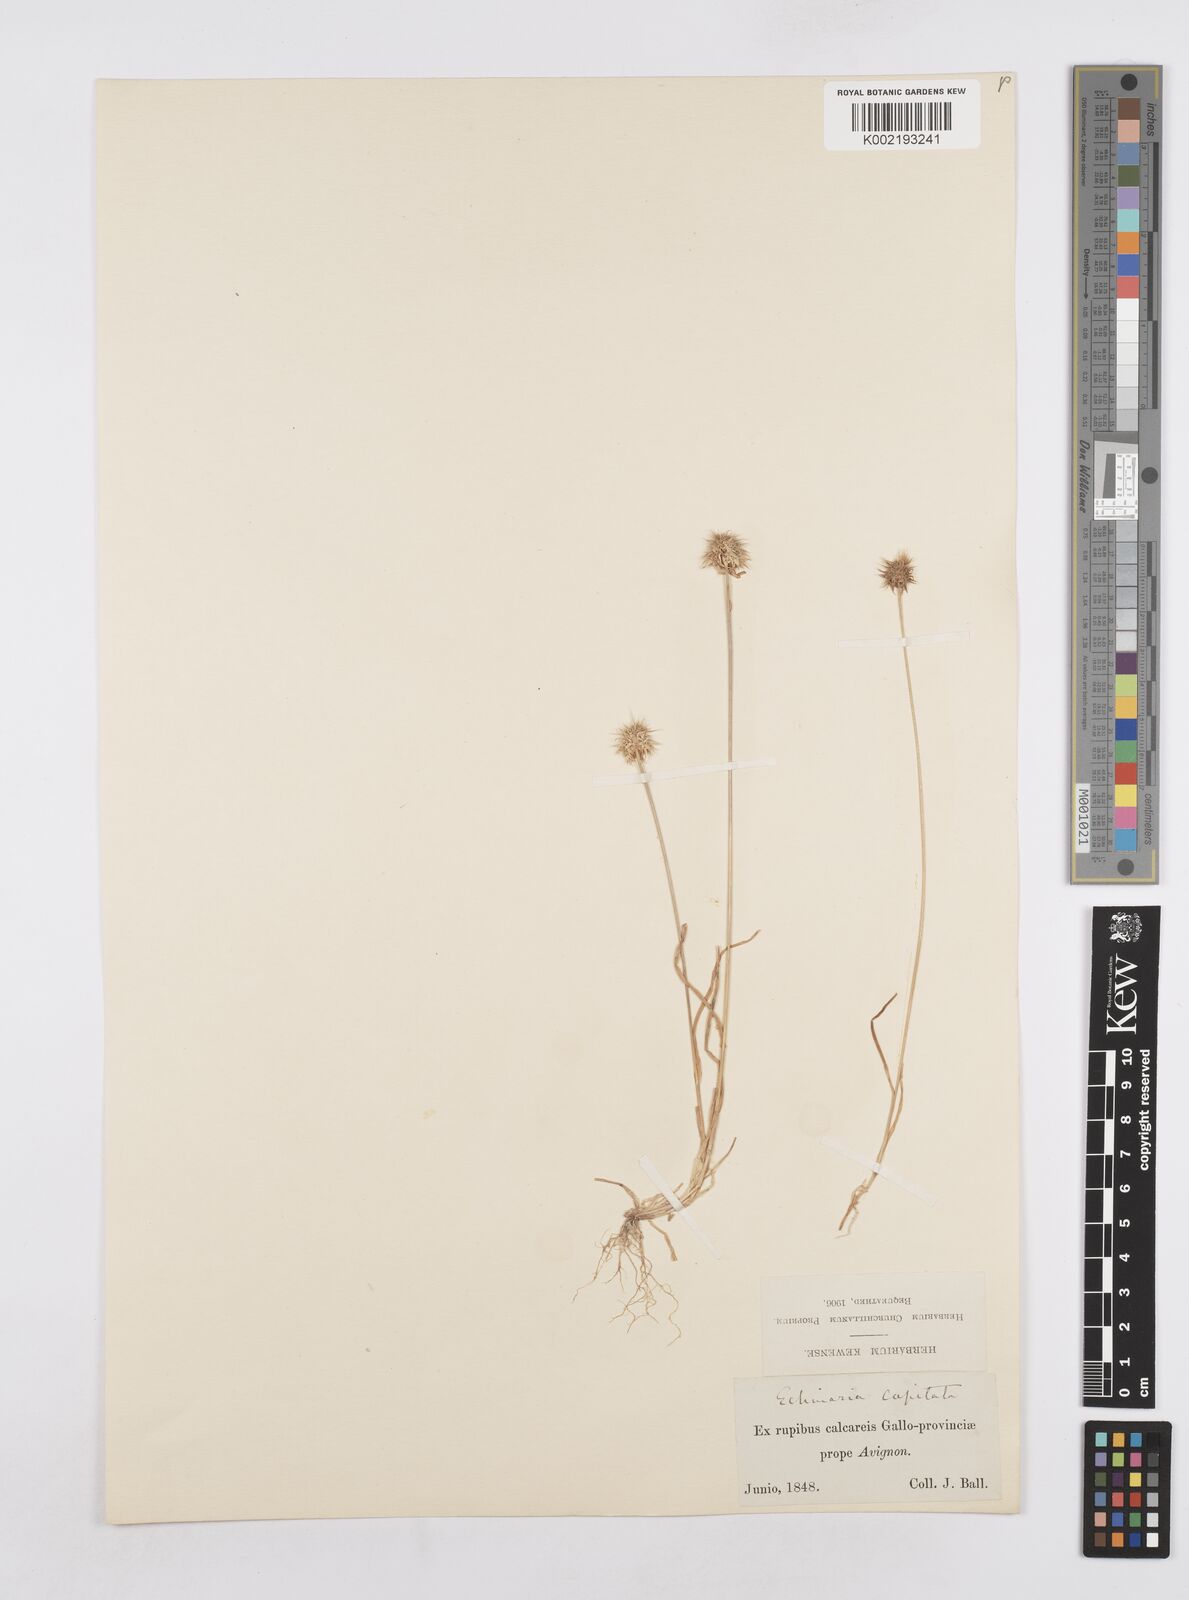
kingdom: Plantae
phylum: Tracheophyta
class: Liliopsida
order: Poales
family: Poaceae
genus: Echinaria
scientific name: Echinaria capitata
